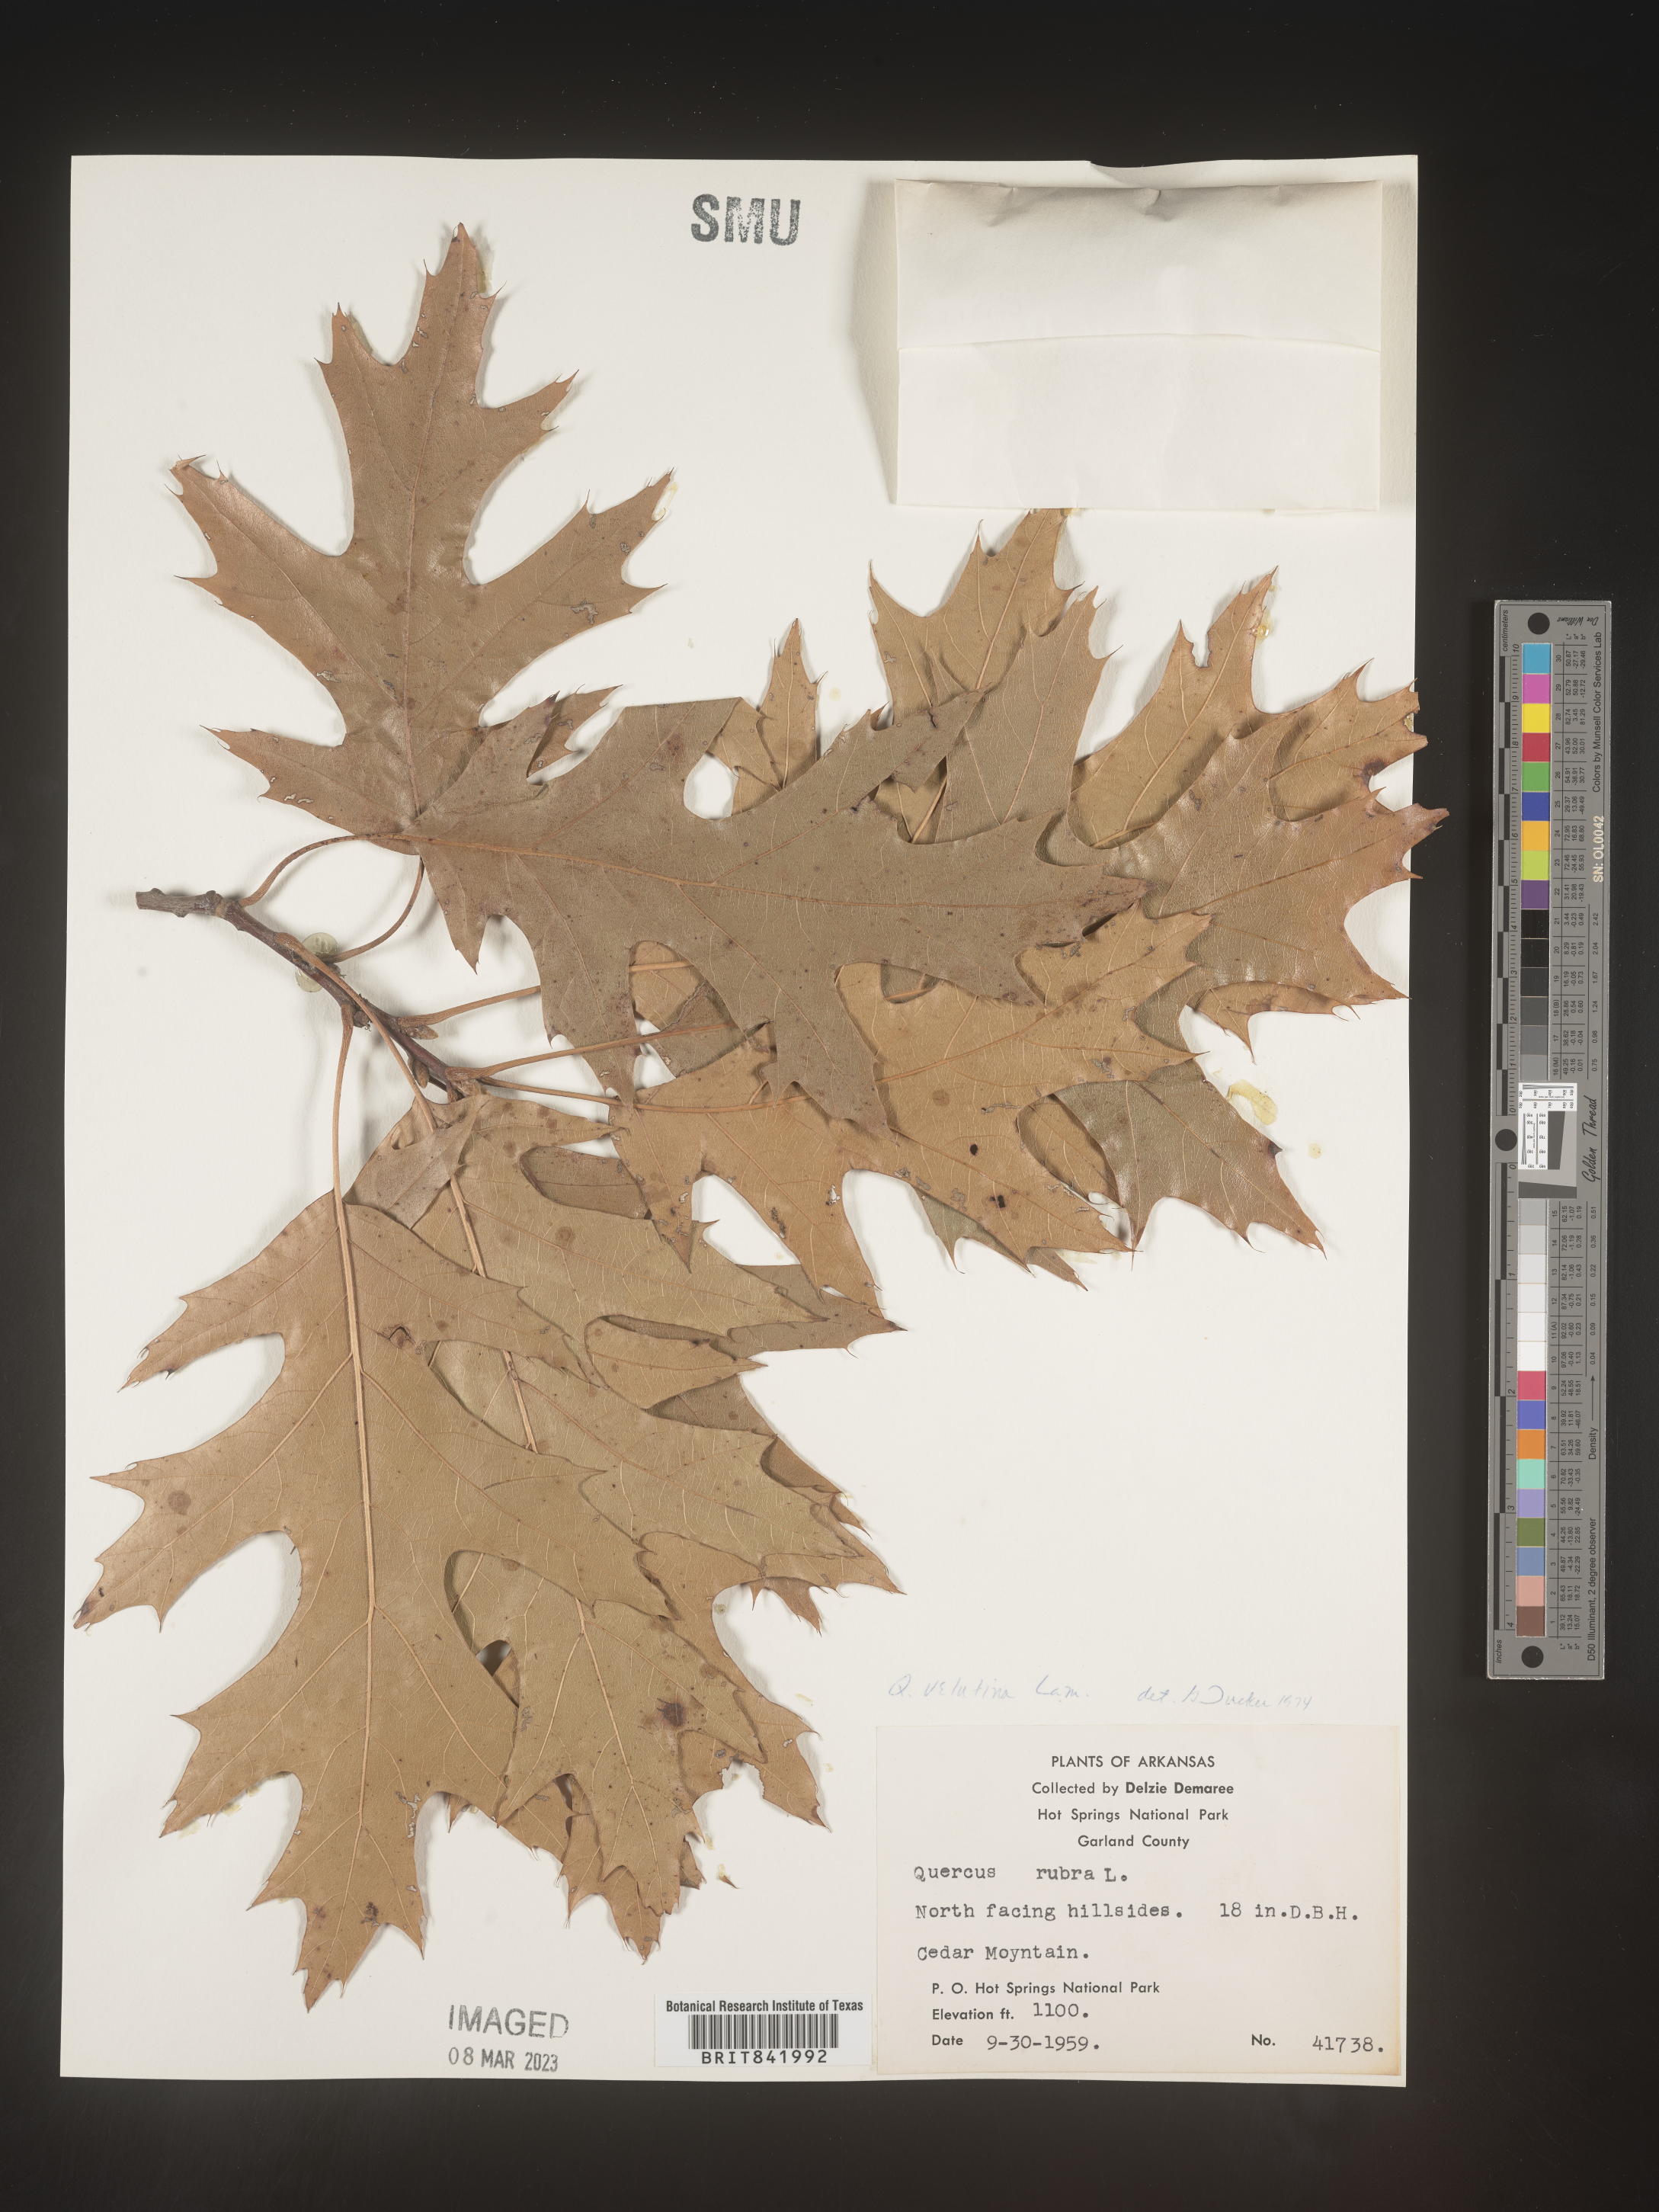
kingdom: Plantae
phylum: Tracheophyta
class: Magnoliopsida
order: Fagales
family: Fagaceae
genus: Quercus
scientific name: Quercus velutina
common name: Black oak
